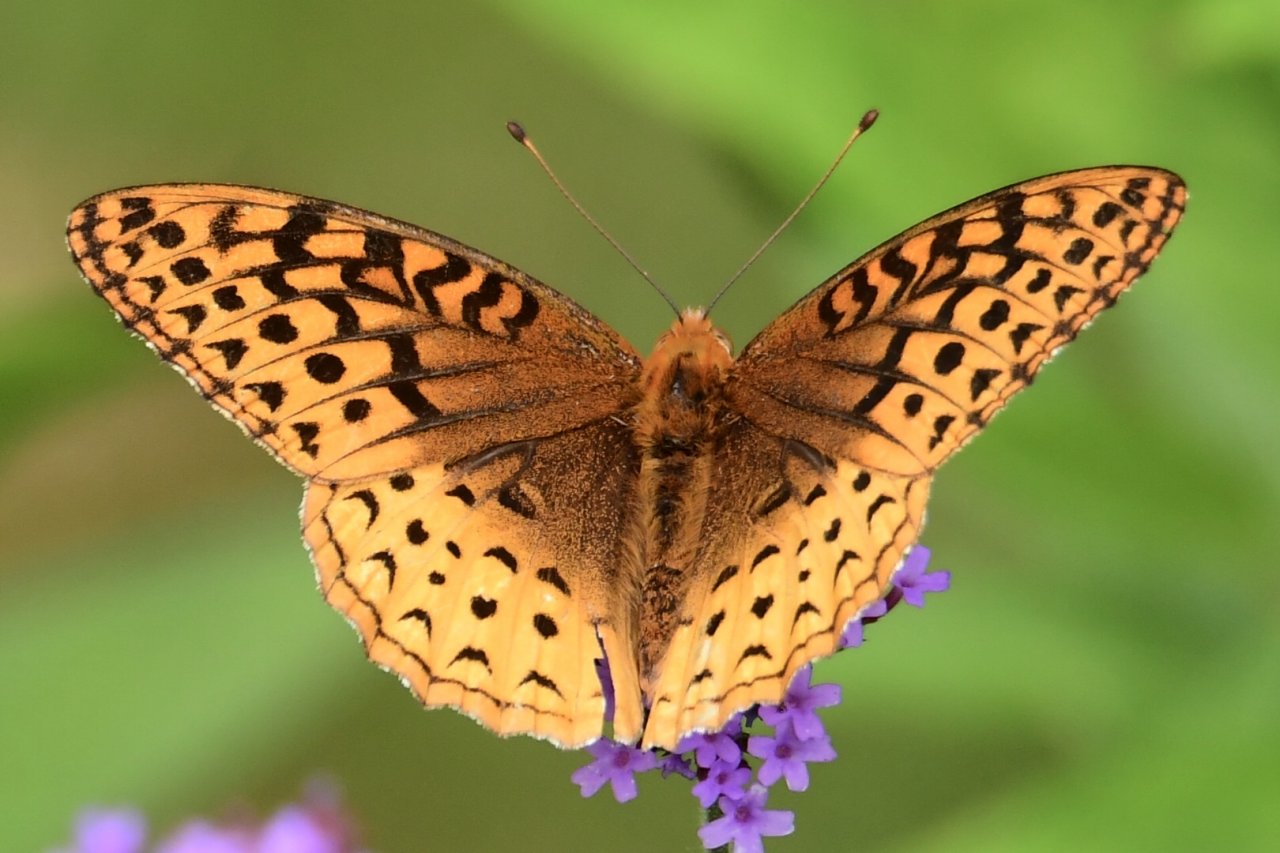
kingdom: Animalia
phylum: Arthropoda
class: Insecta
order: Lepidoptera
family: Nymphalidae
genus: Speyeria
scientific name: Speyeria cybele
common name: Great Spangled Fritillary
